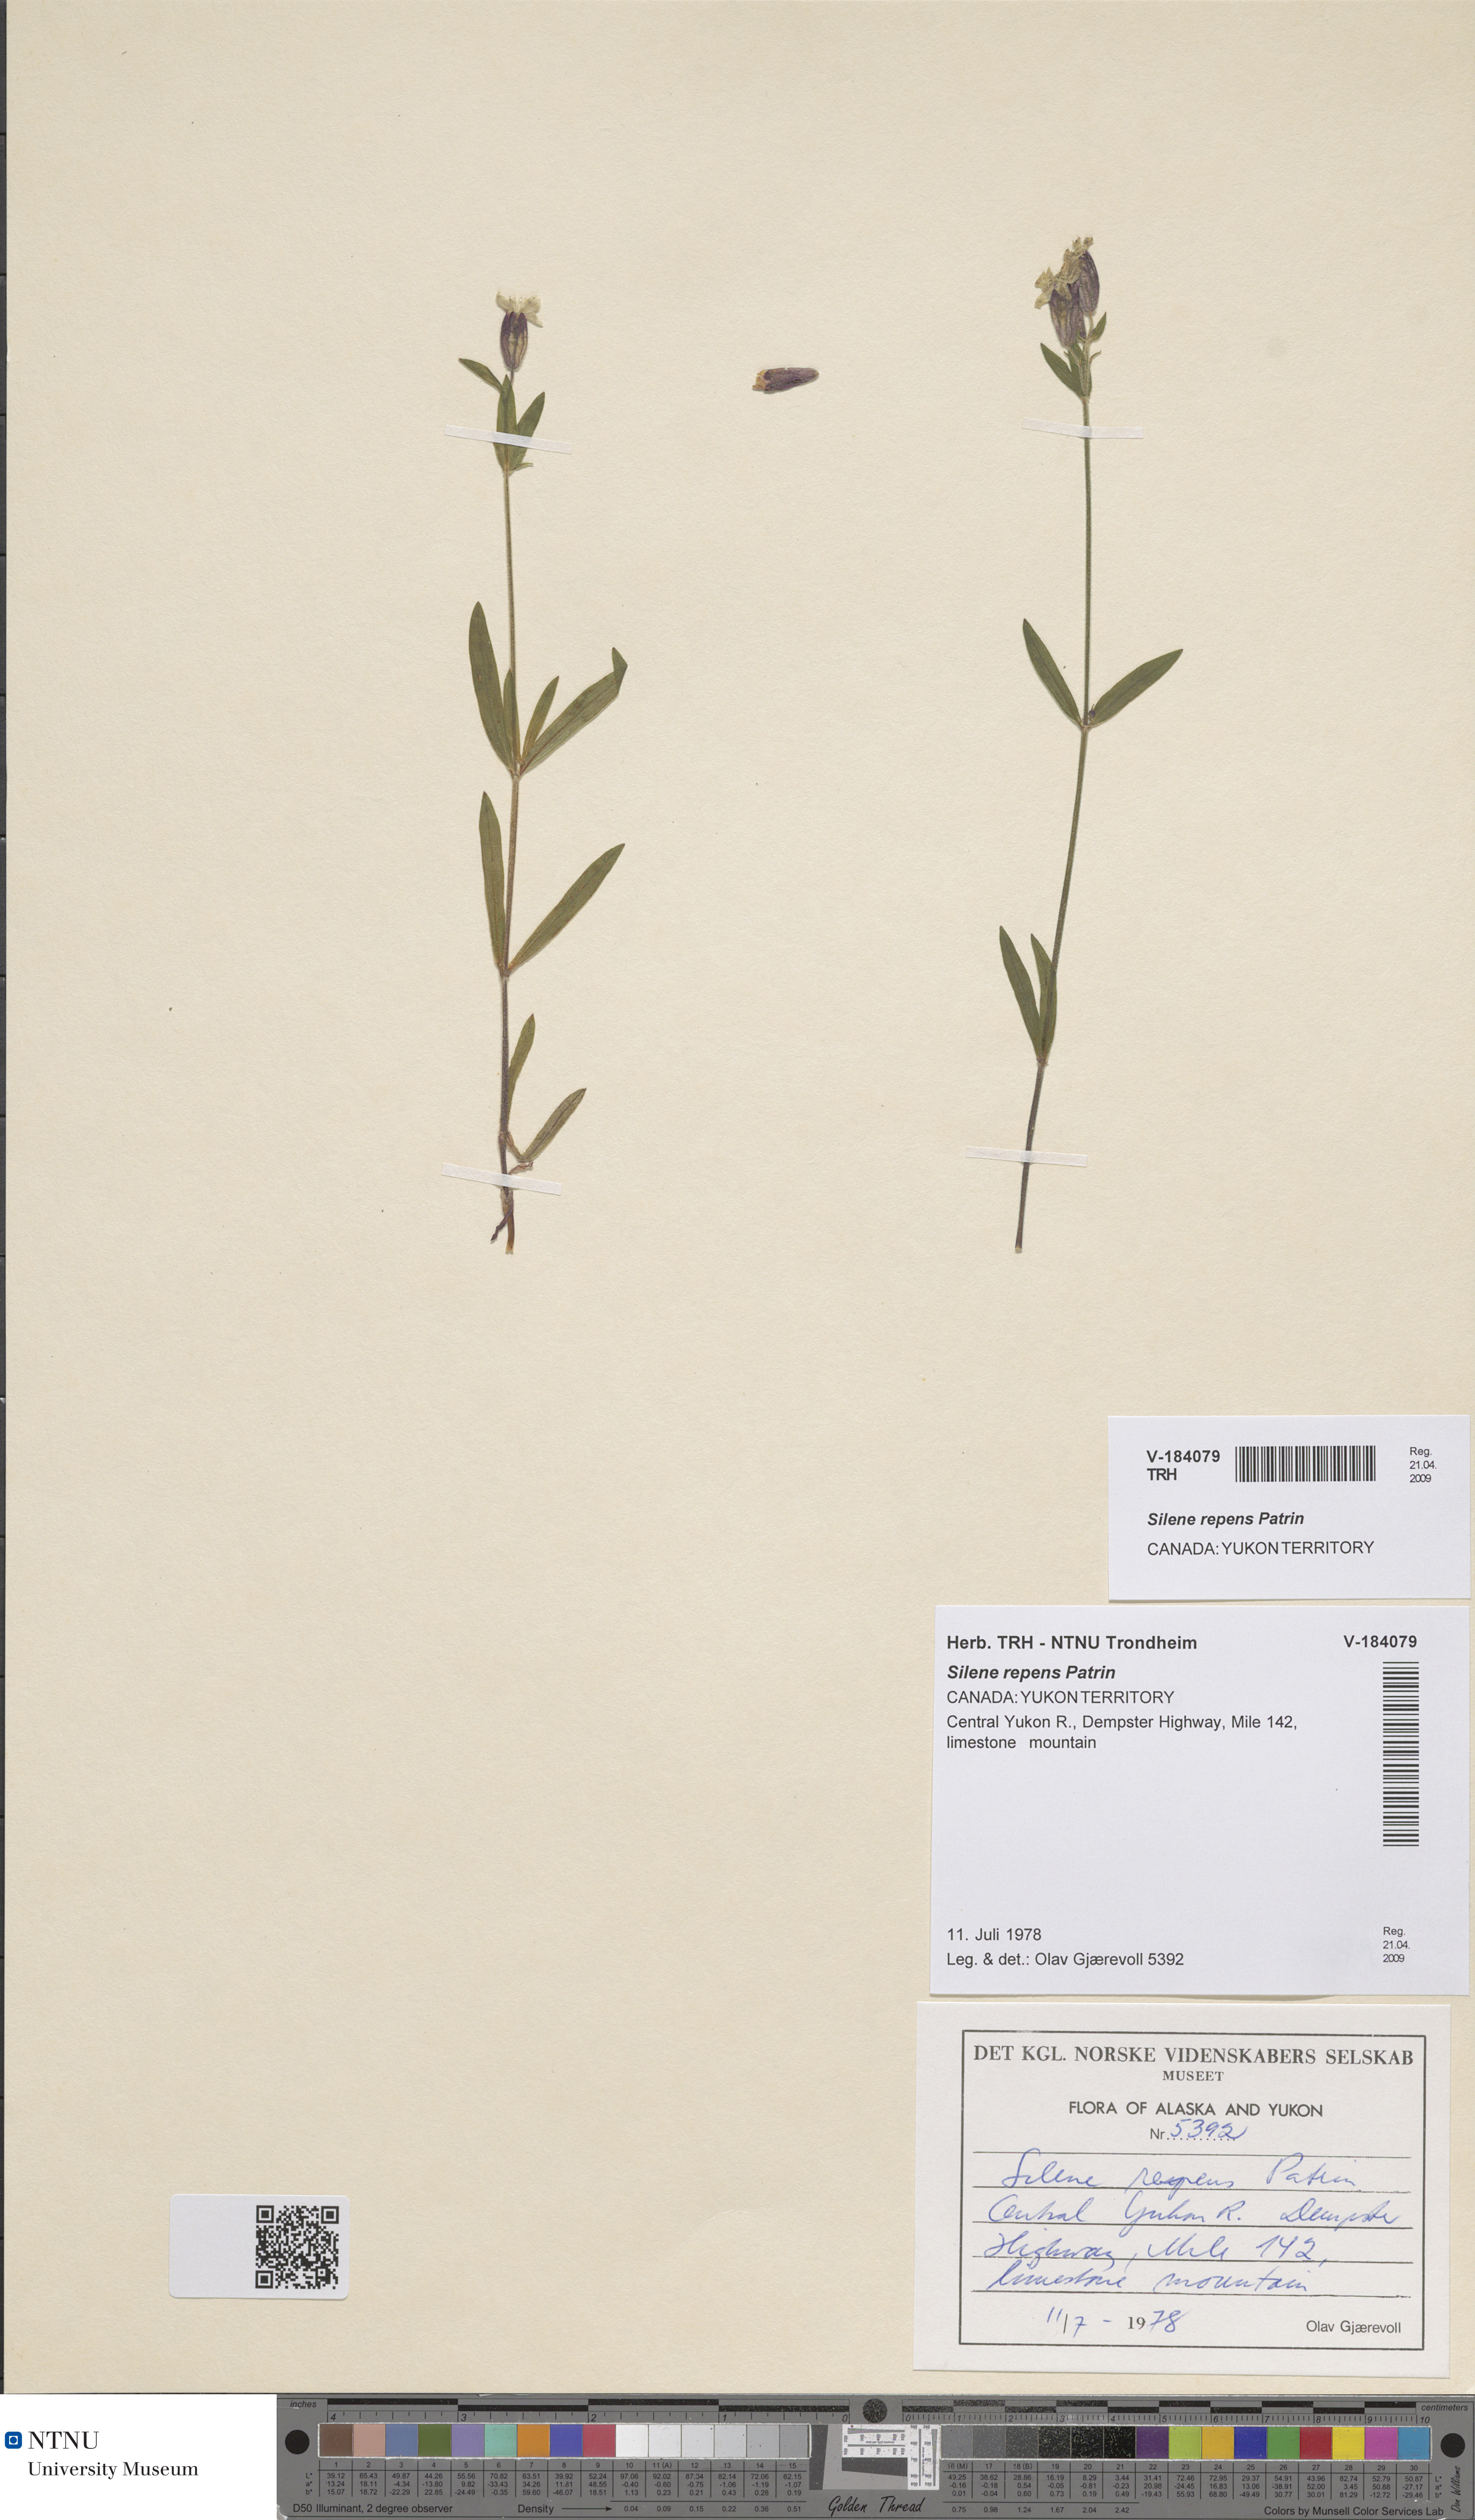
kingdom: Plantae
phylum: Tracheophyta
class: Magnoliopsida
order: Caryophyllales
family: Caryophyllaceae
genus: Silene
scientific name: Silene repens
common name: Pink campion
